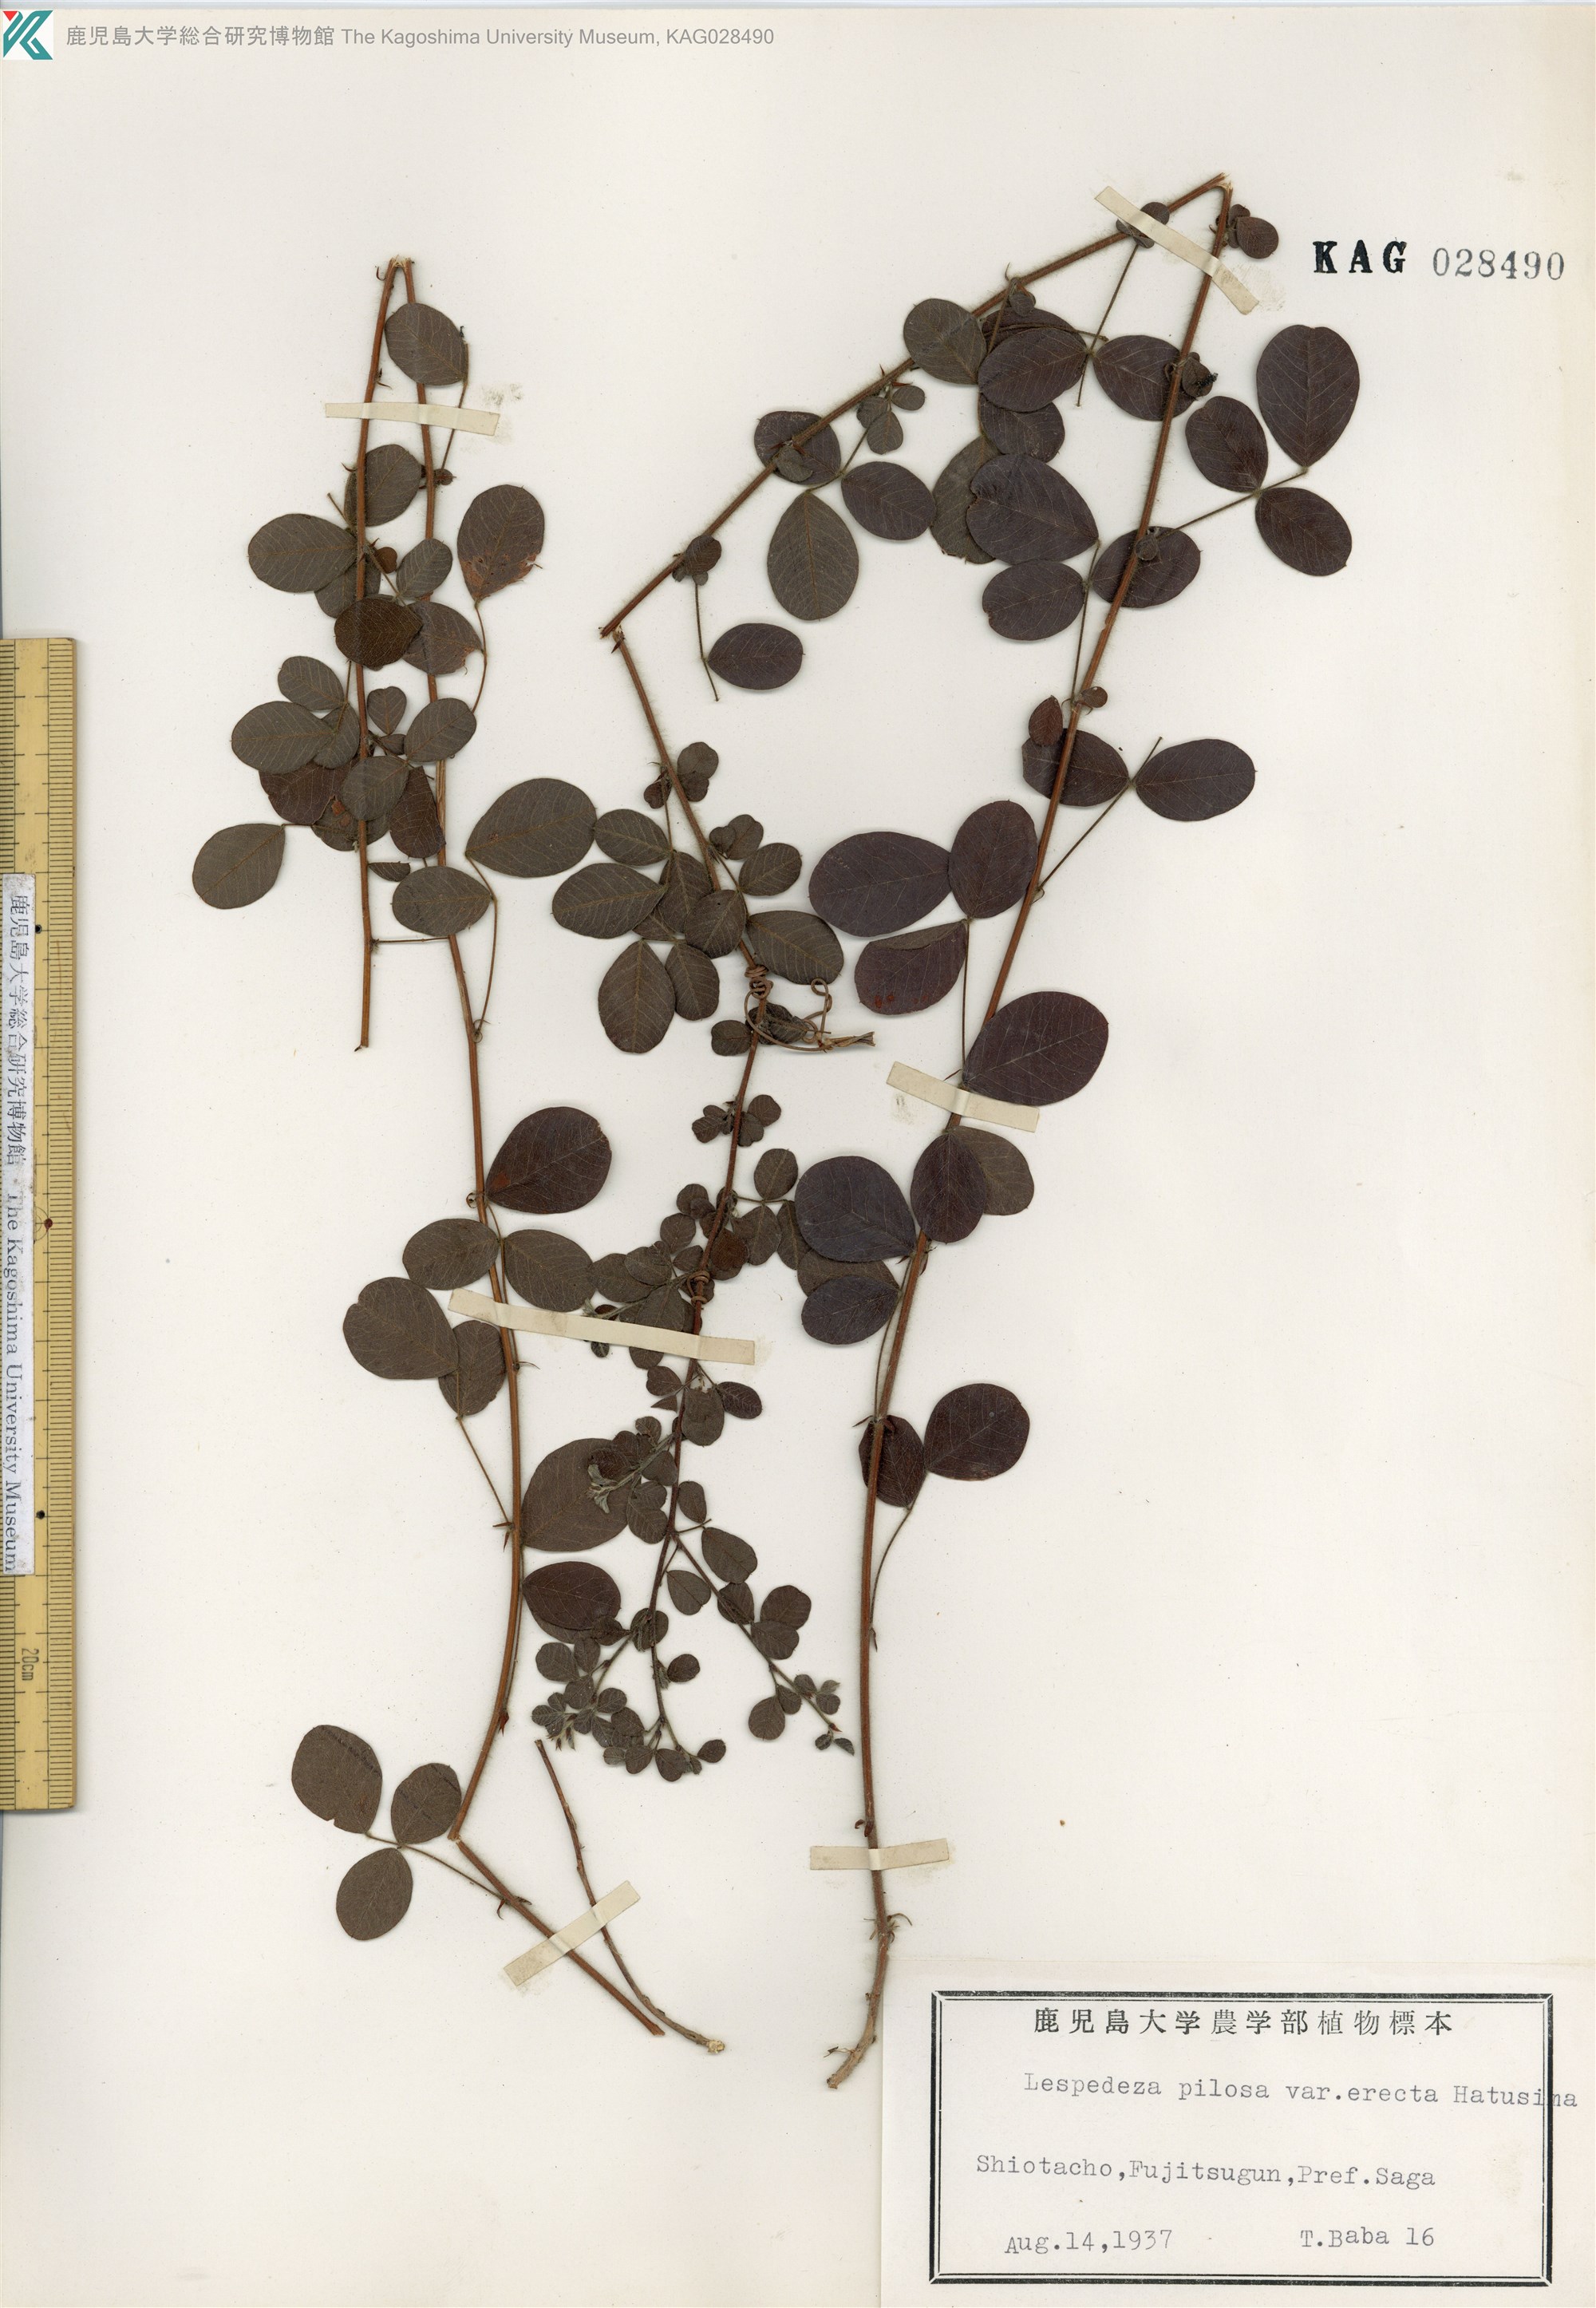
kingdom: Plantae
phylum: Tracheophyta
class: Magnoliopsida
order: Fabales
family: Fabaceae
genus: Lespedeza
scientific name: Lespedeza pilosa
